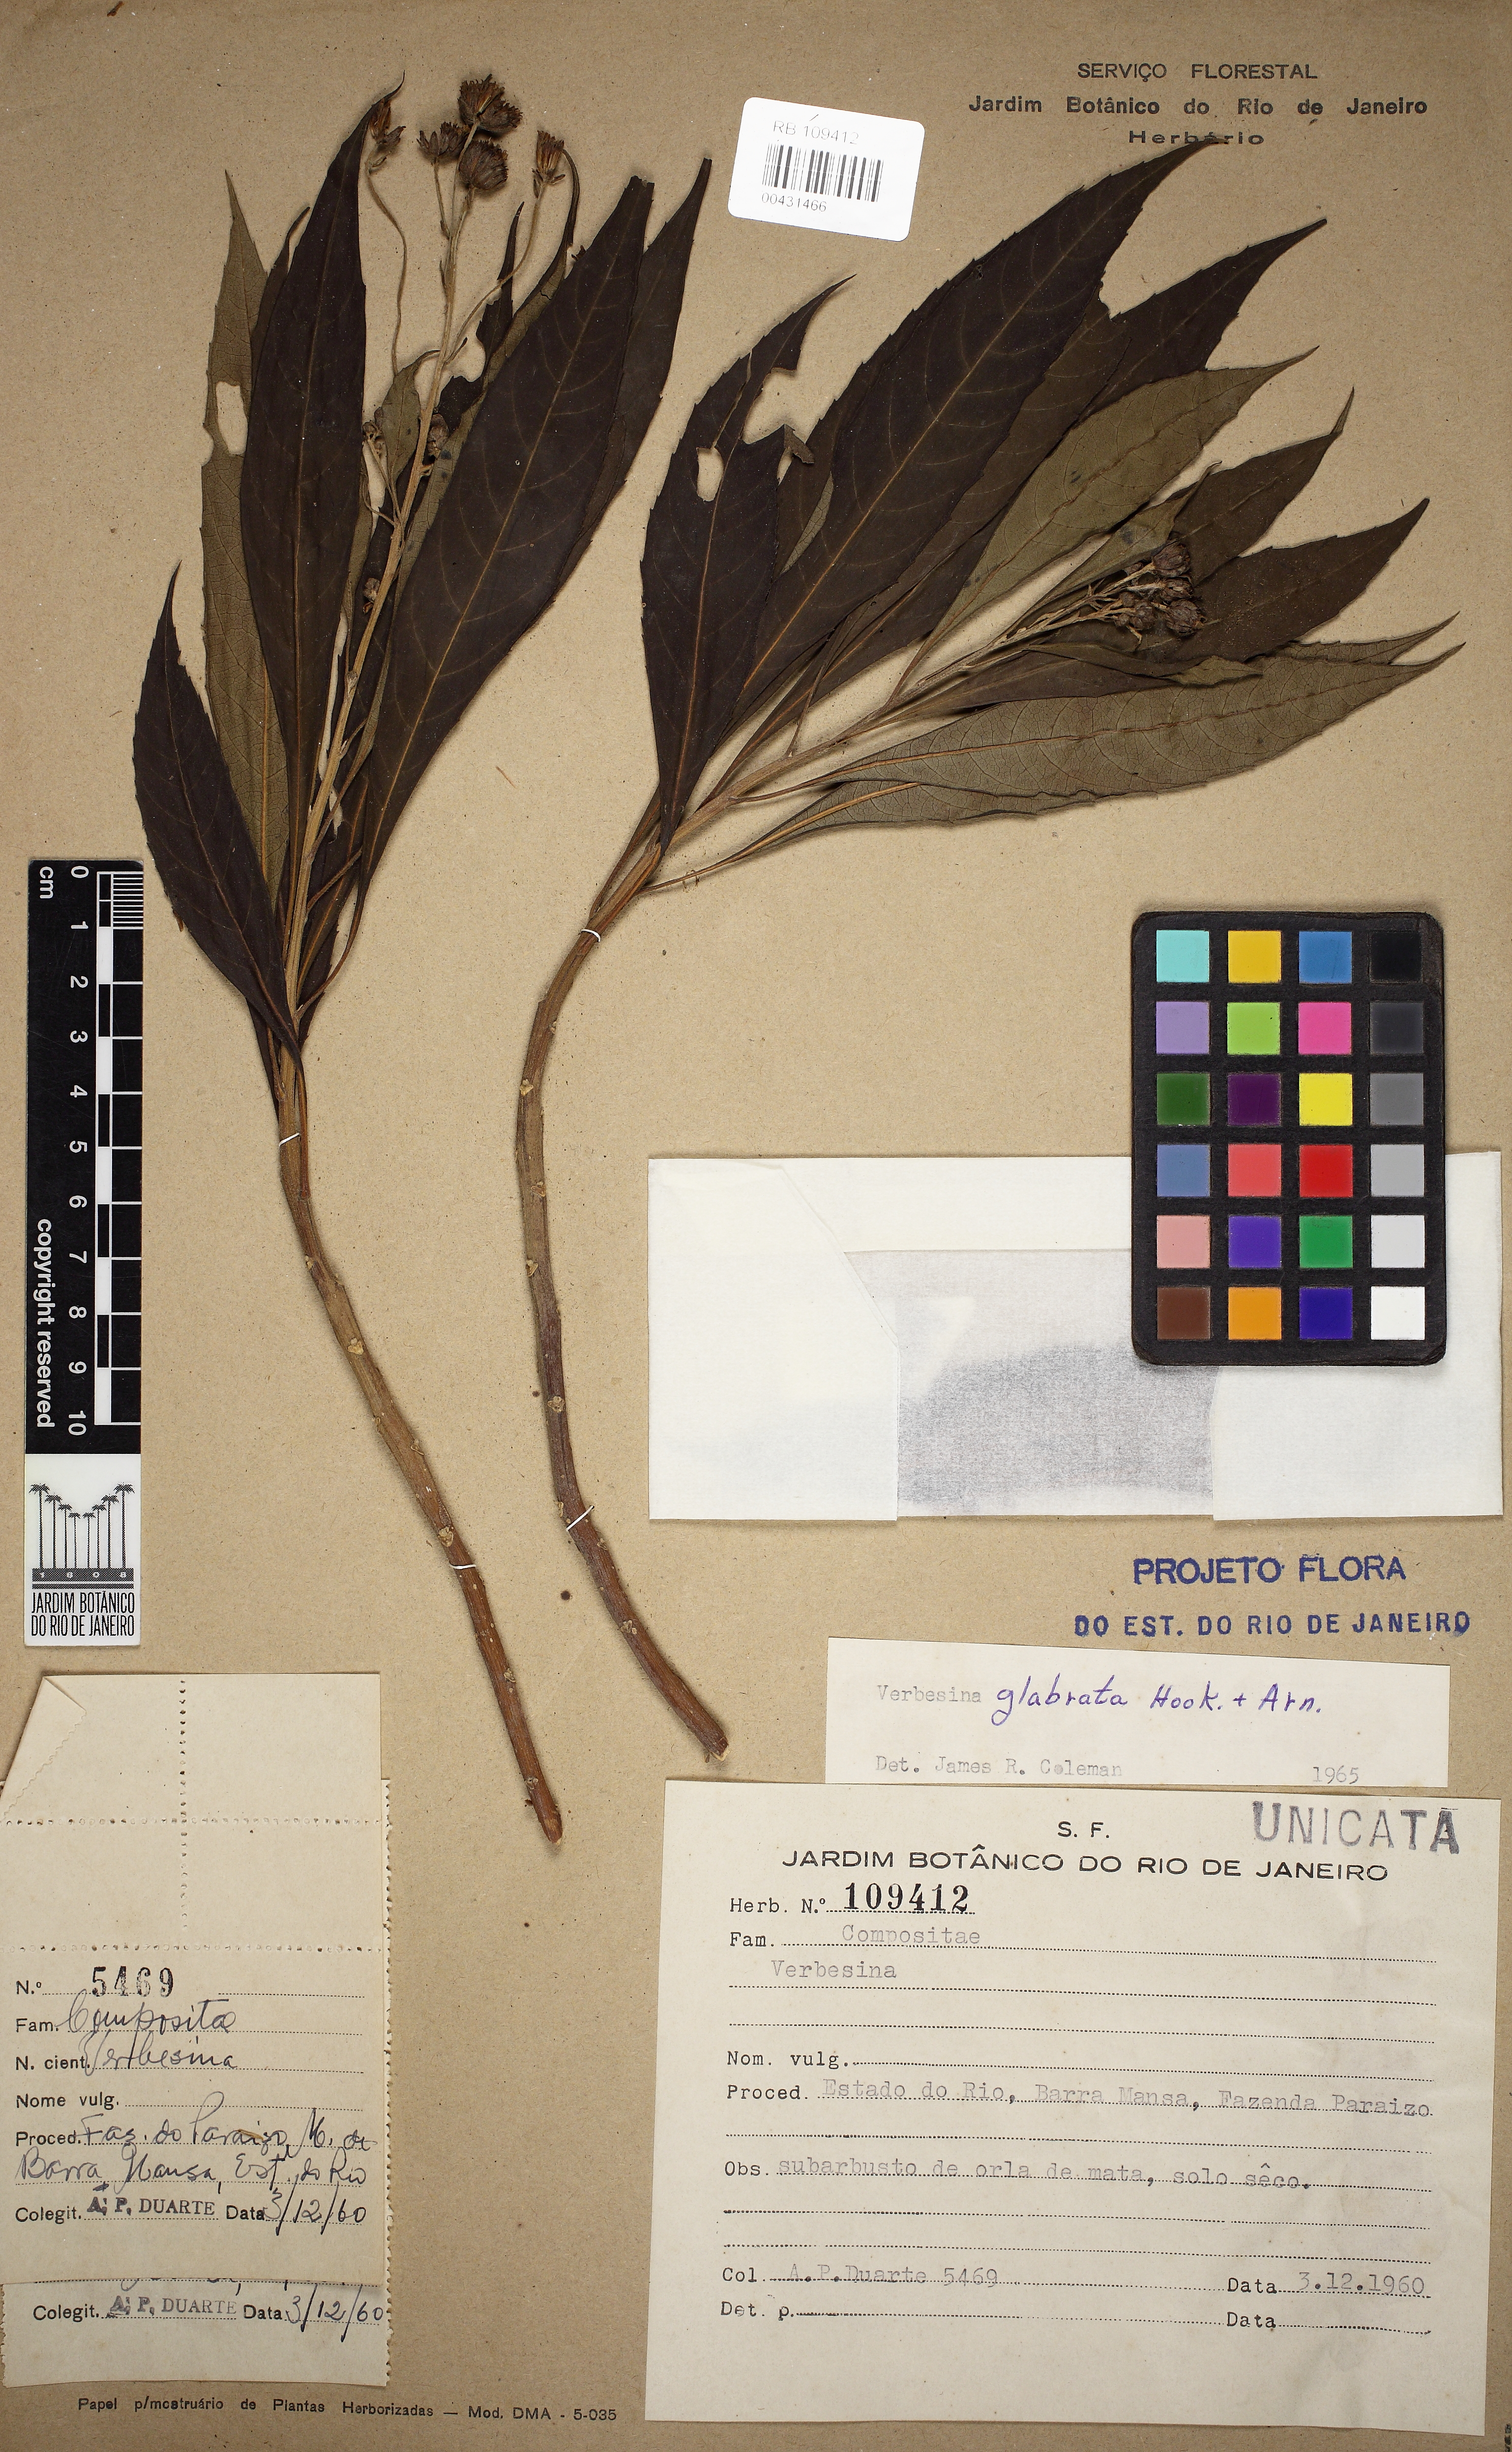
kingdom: Plantae
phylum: Tracheophyta
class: Magnoliopsida
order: Asterales
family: Asteraceae
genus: Verbesina
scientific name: Verbesina glabrata
